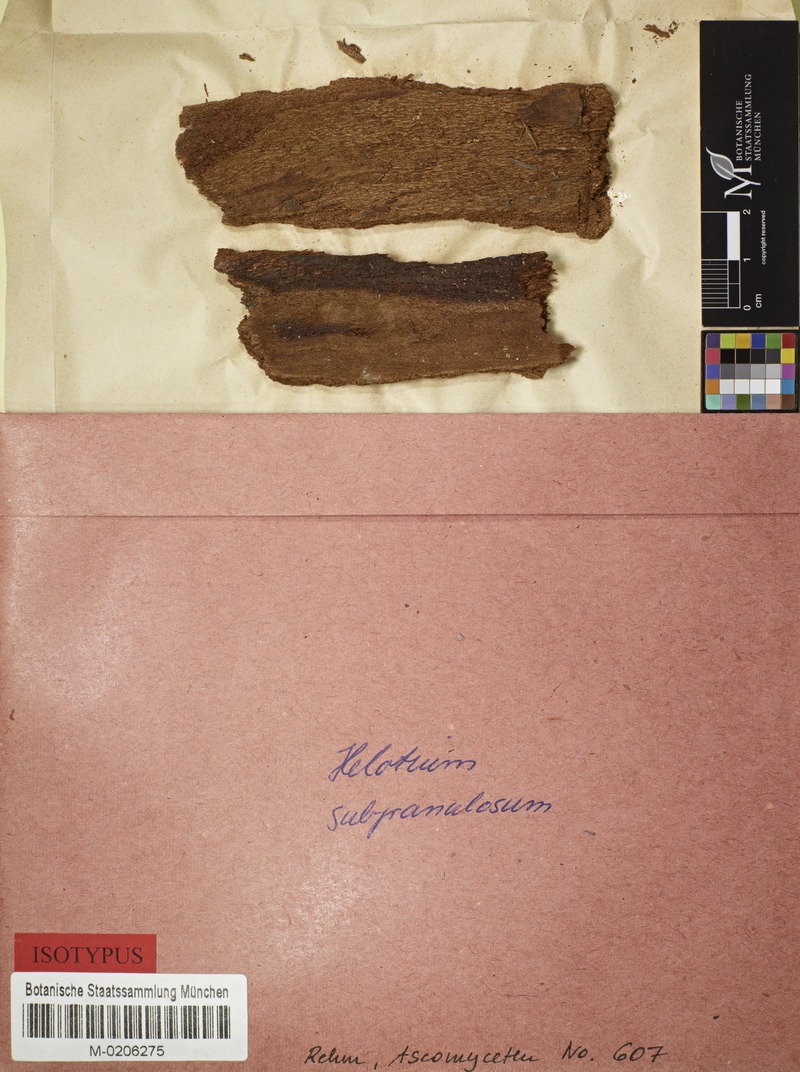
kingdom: Fungi
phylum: Ascomycota
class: Leotiomycetes
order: Helotiales
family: Calloriaceae
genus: Micropodia
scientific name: Micropodia subgranulosa
